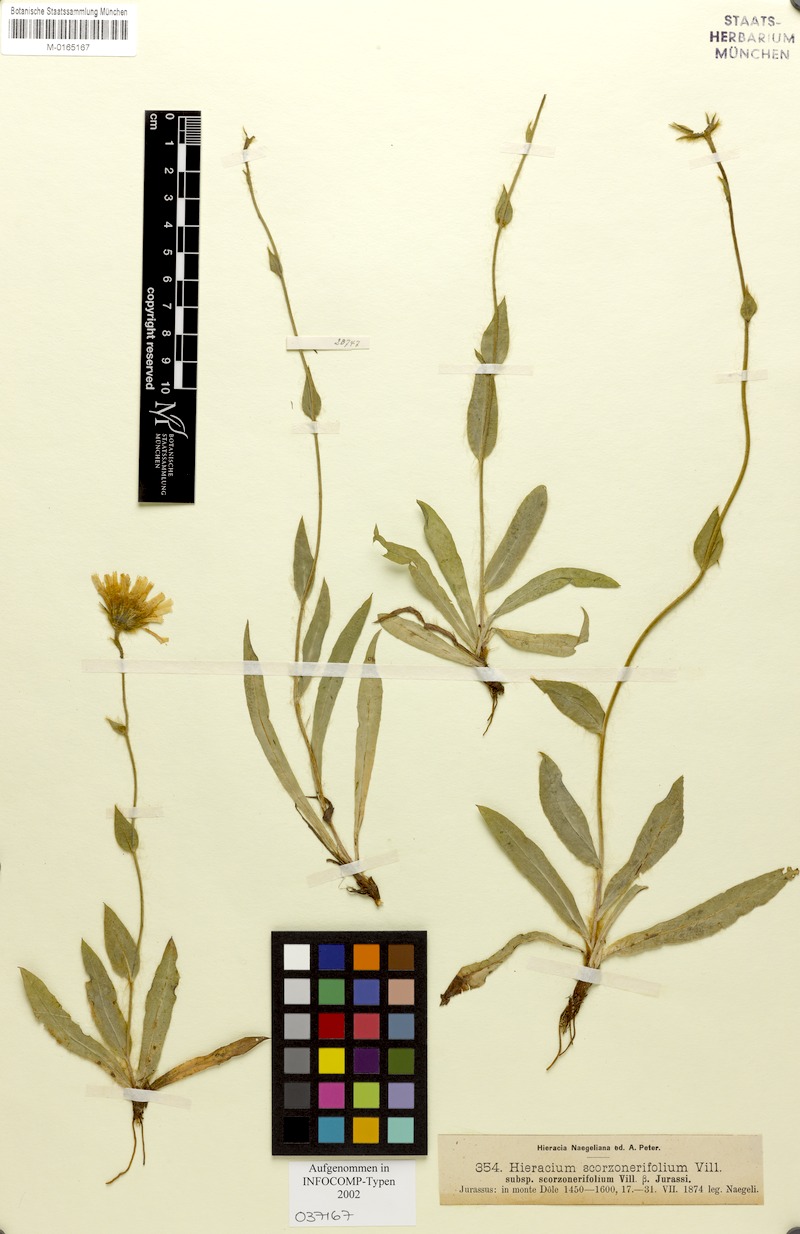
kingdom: Plantae
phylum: Tracheophyta
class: Magnoliopsida
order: Asterales
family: Asteraceae
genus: Hieracium
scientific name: Hieracium scorzonerifolium
